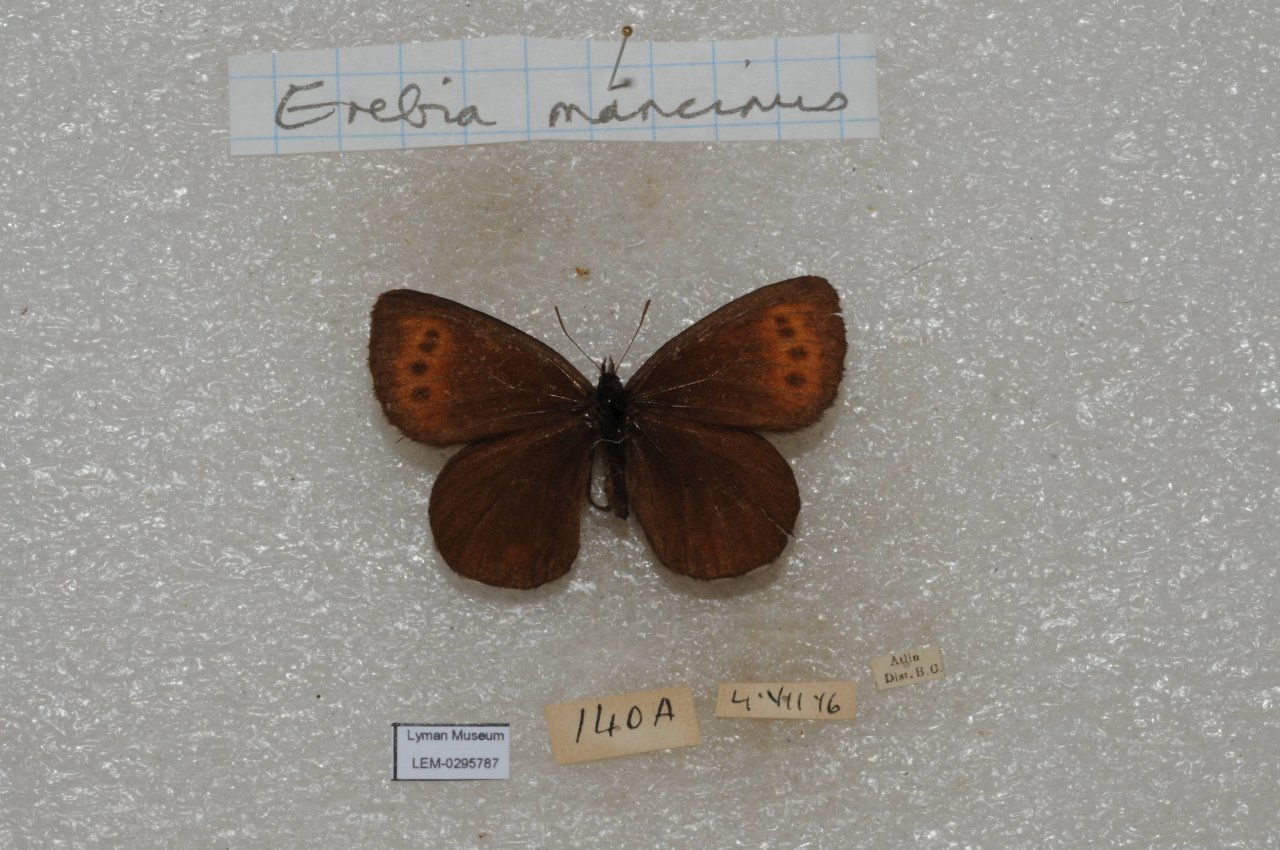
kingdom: Animalia
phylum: Arthropoda
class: Insecta
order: Lepidoptera
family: Nymphalidae
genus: Erebia
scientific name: Erebia disa
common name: Taiga Alpine
